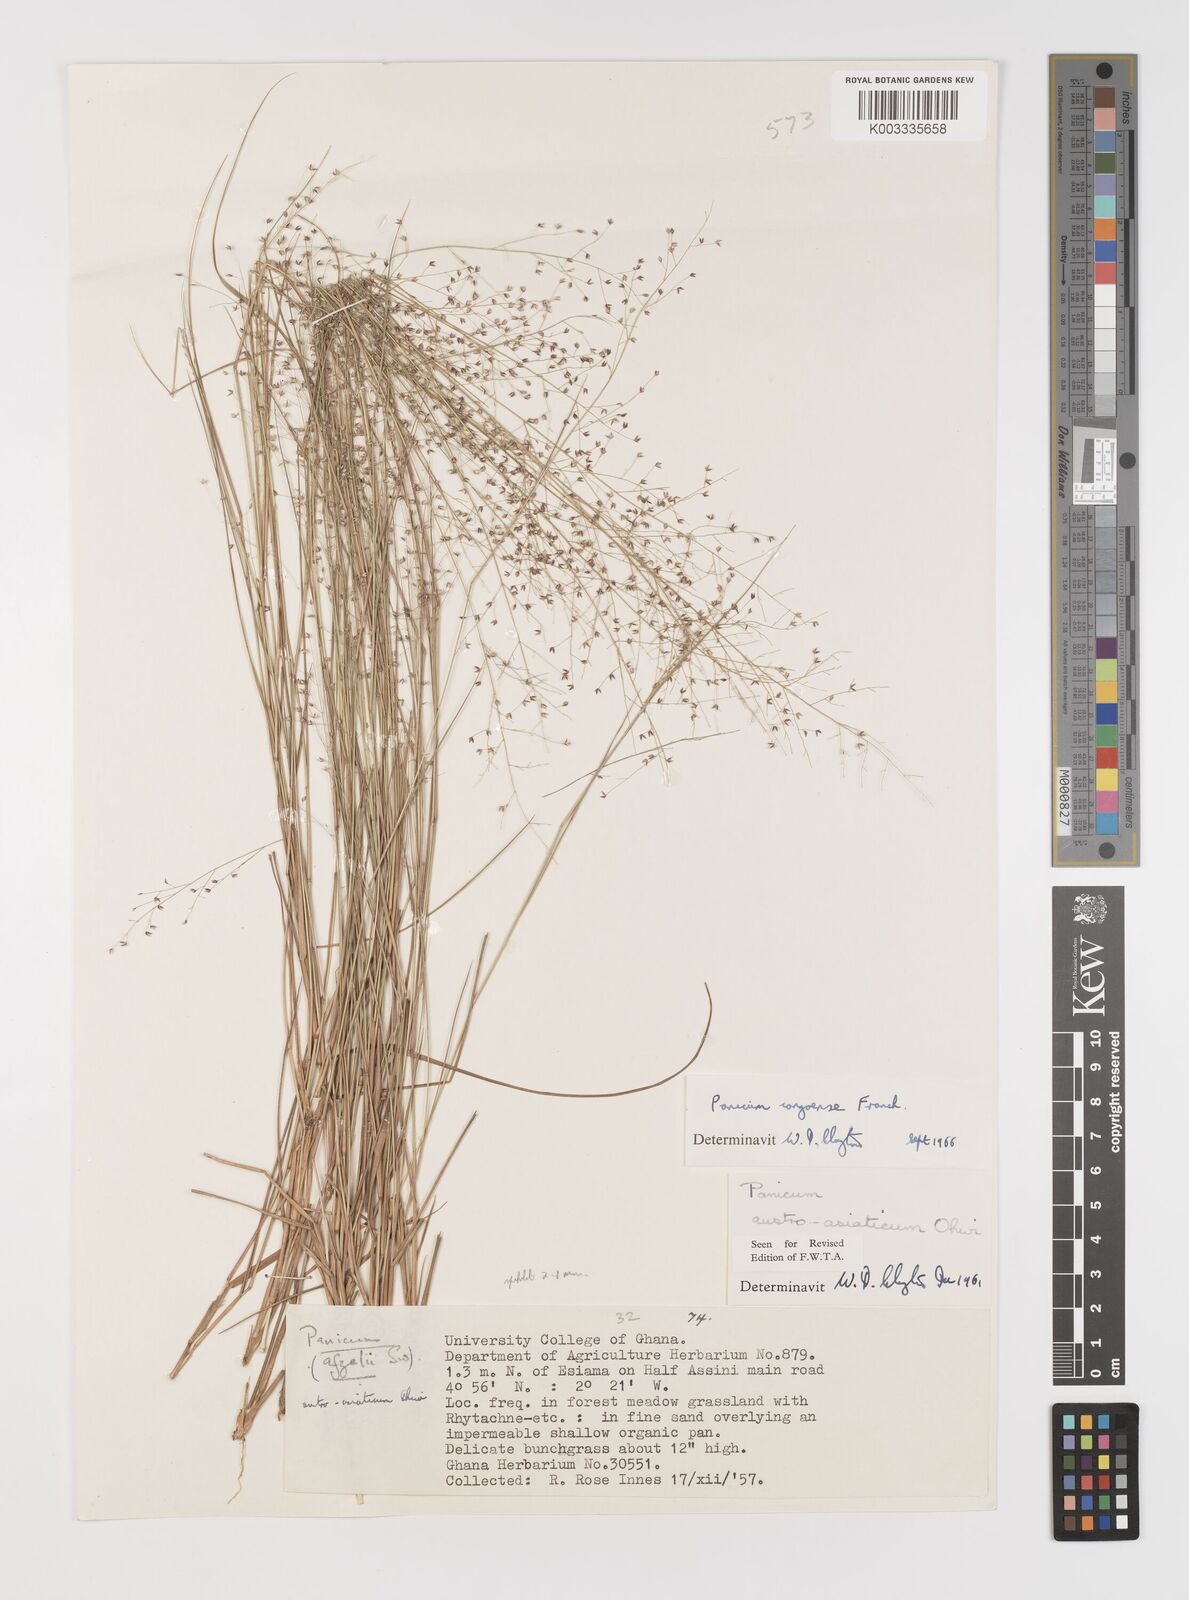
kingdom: Plantae
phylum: Tracheophyta
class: Liliopsida
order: Poales
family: Poaceae
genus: Panicum
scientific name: Panicum congoense
